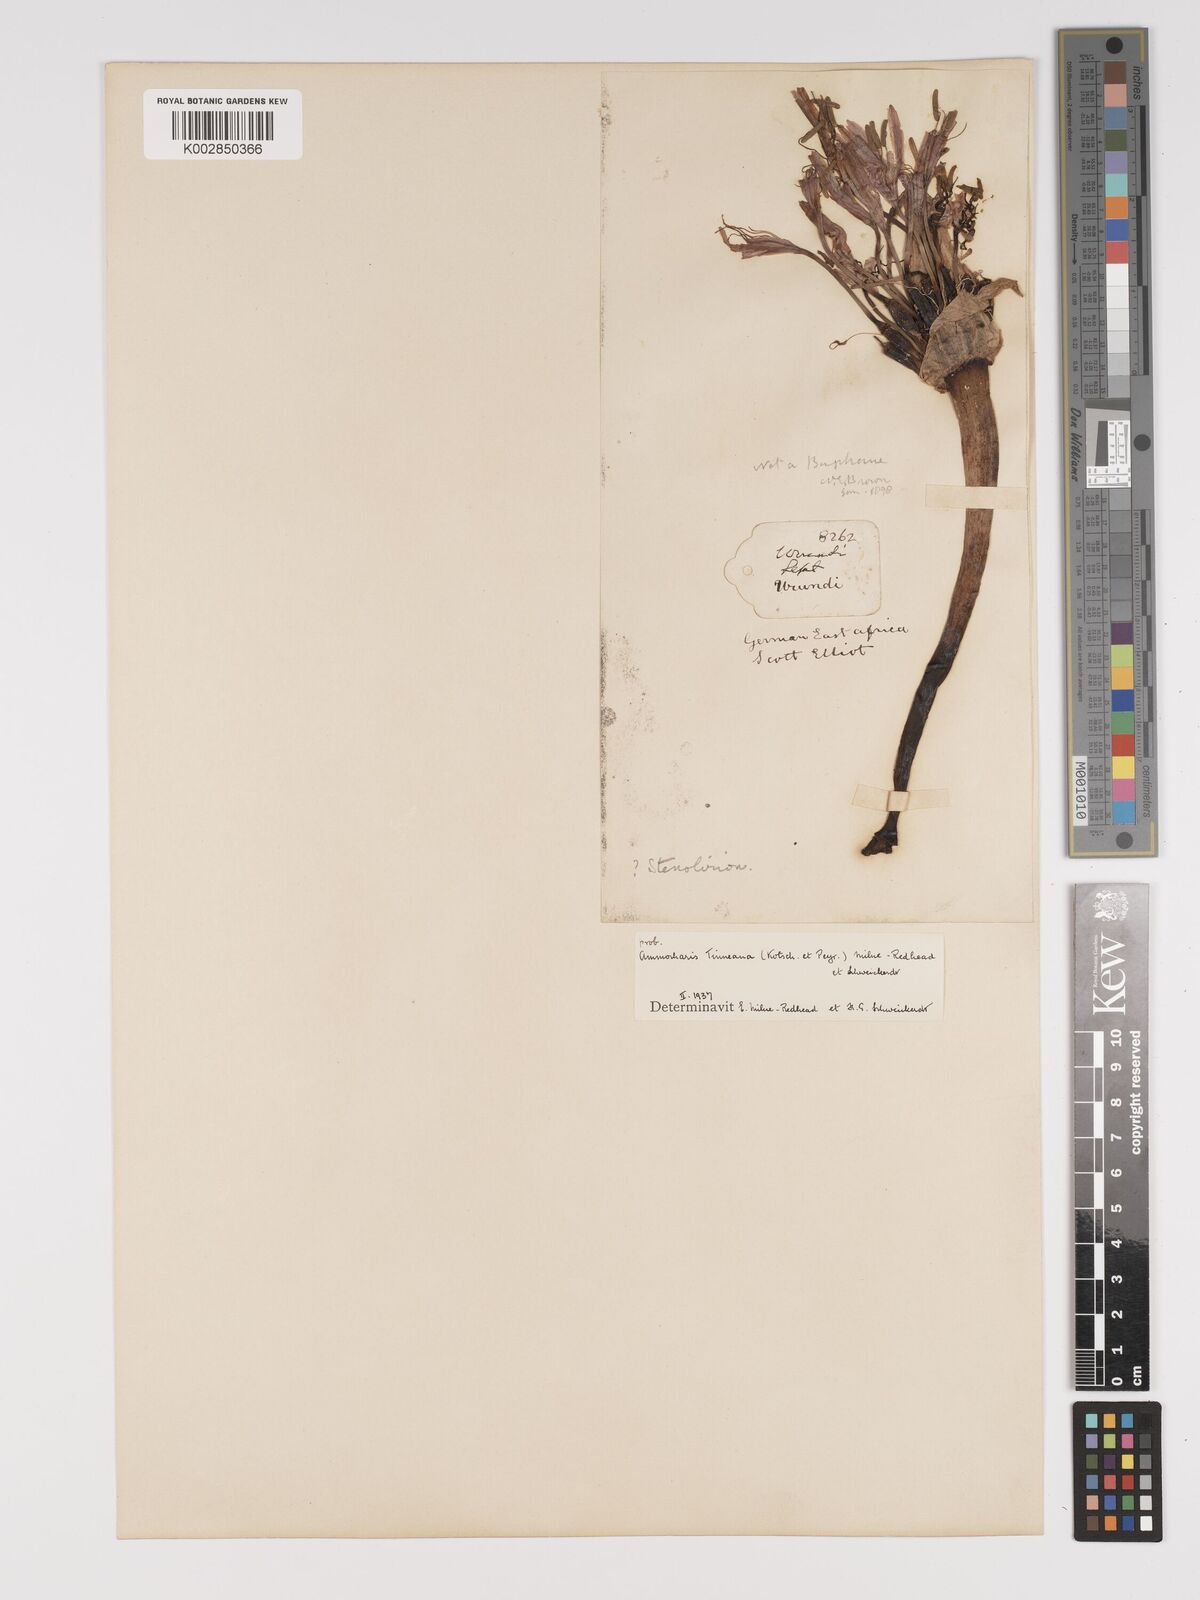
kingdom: Plantae
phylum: Tracheophyta
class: Liliopsida
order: Asparagales
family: Amaryllidaceae
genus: Ammocharis
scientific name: Ammocharis tinneana
